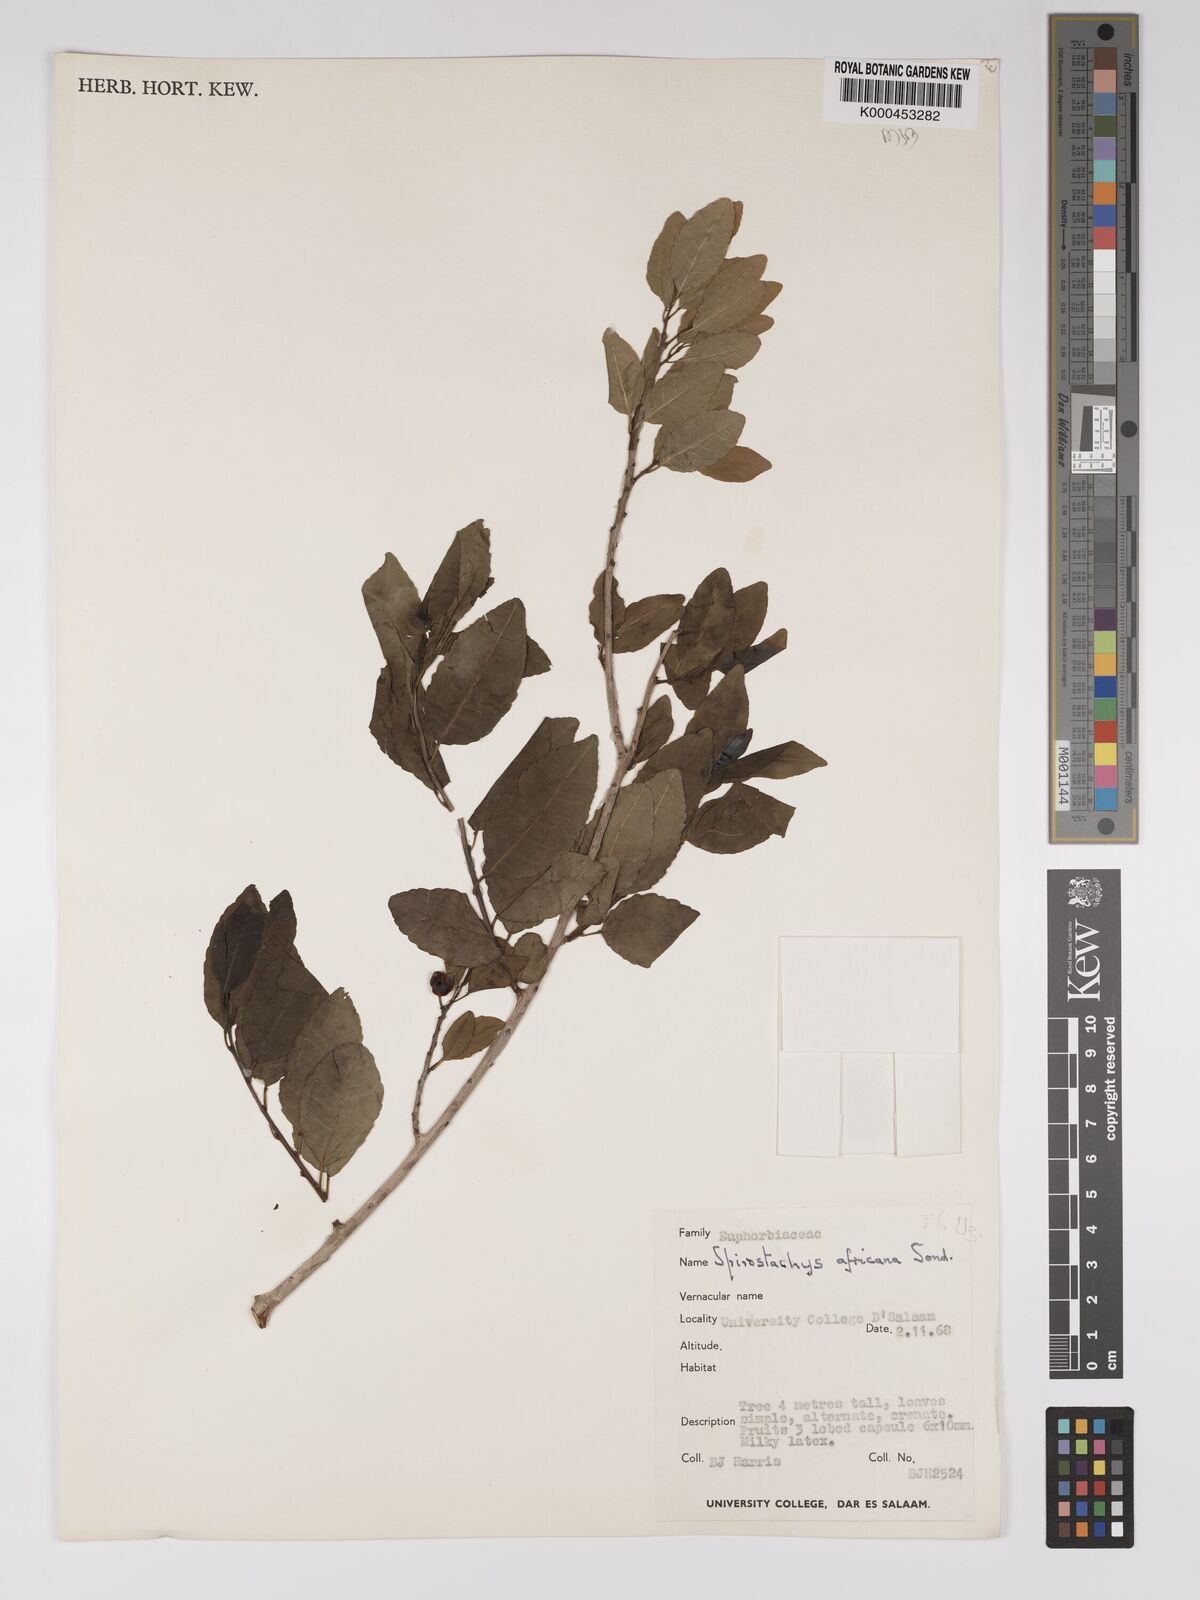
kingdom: Plantae
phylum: Tracheophyta
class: Magnoliopsida
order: Malpighiales
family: Euphorbiaceae
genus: Spirostachys
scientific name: Spirostachys africana
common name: Tamboti
